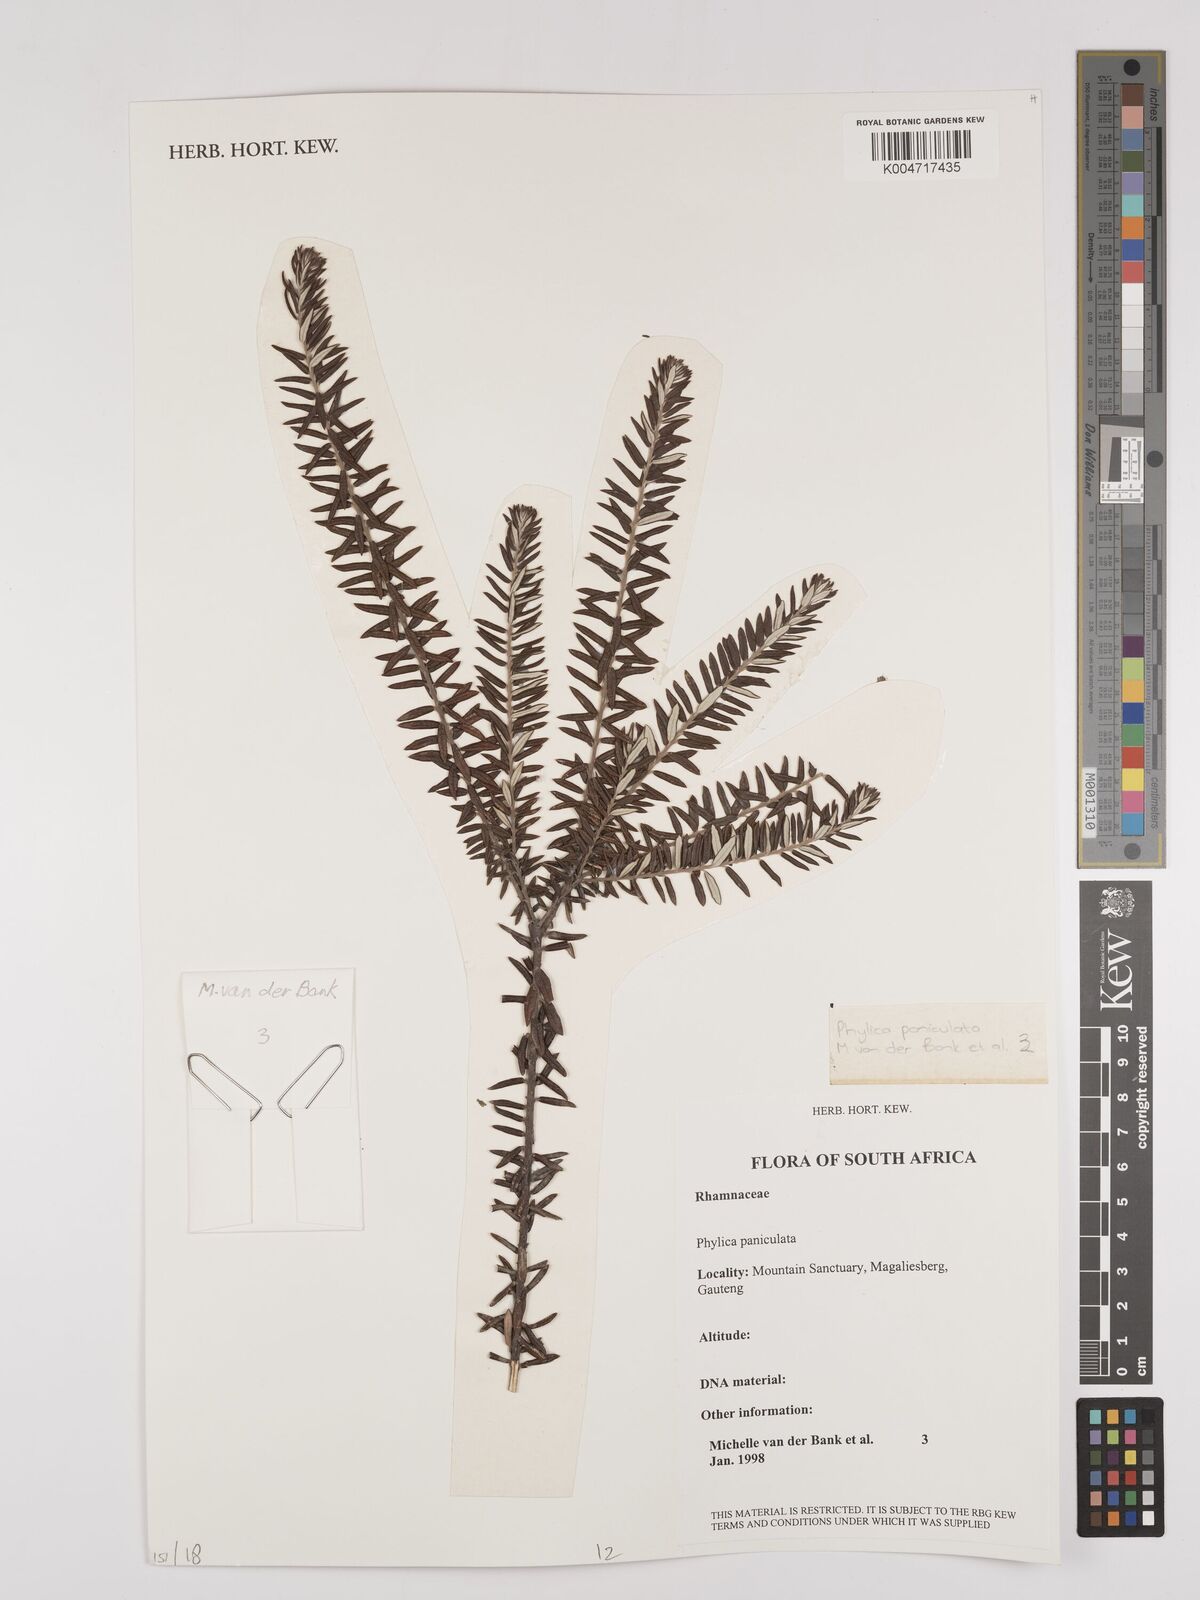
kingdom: Plantae
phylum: Tracheophyta
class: Magnoliopsida
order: Rosales
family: Rhamnaceae
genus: Phylica
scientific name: Phylica paniculata
